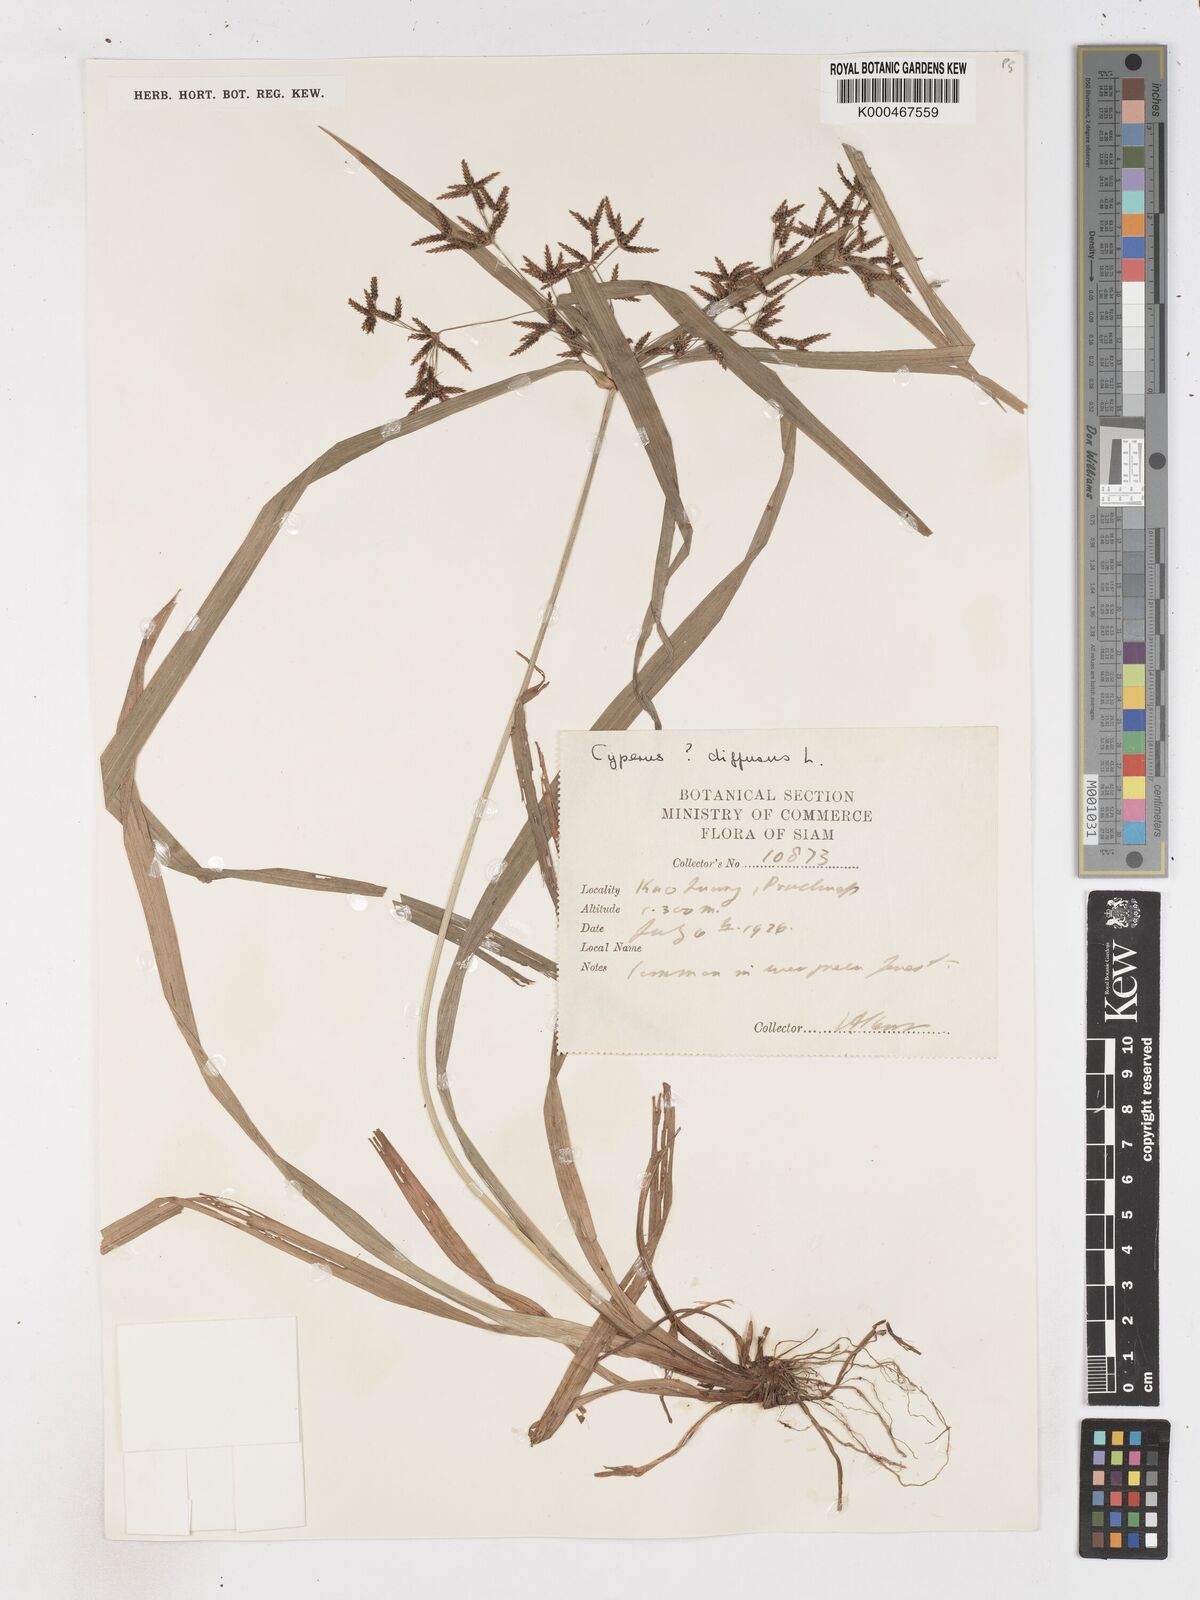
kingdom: Plantae
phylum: Tracheophyta
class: Liliopsida
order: Poales
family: Cyperaceae
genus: Cyperus
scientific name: Cyperus diffusus
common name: Dwarf umbrella grass
